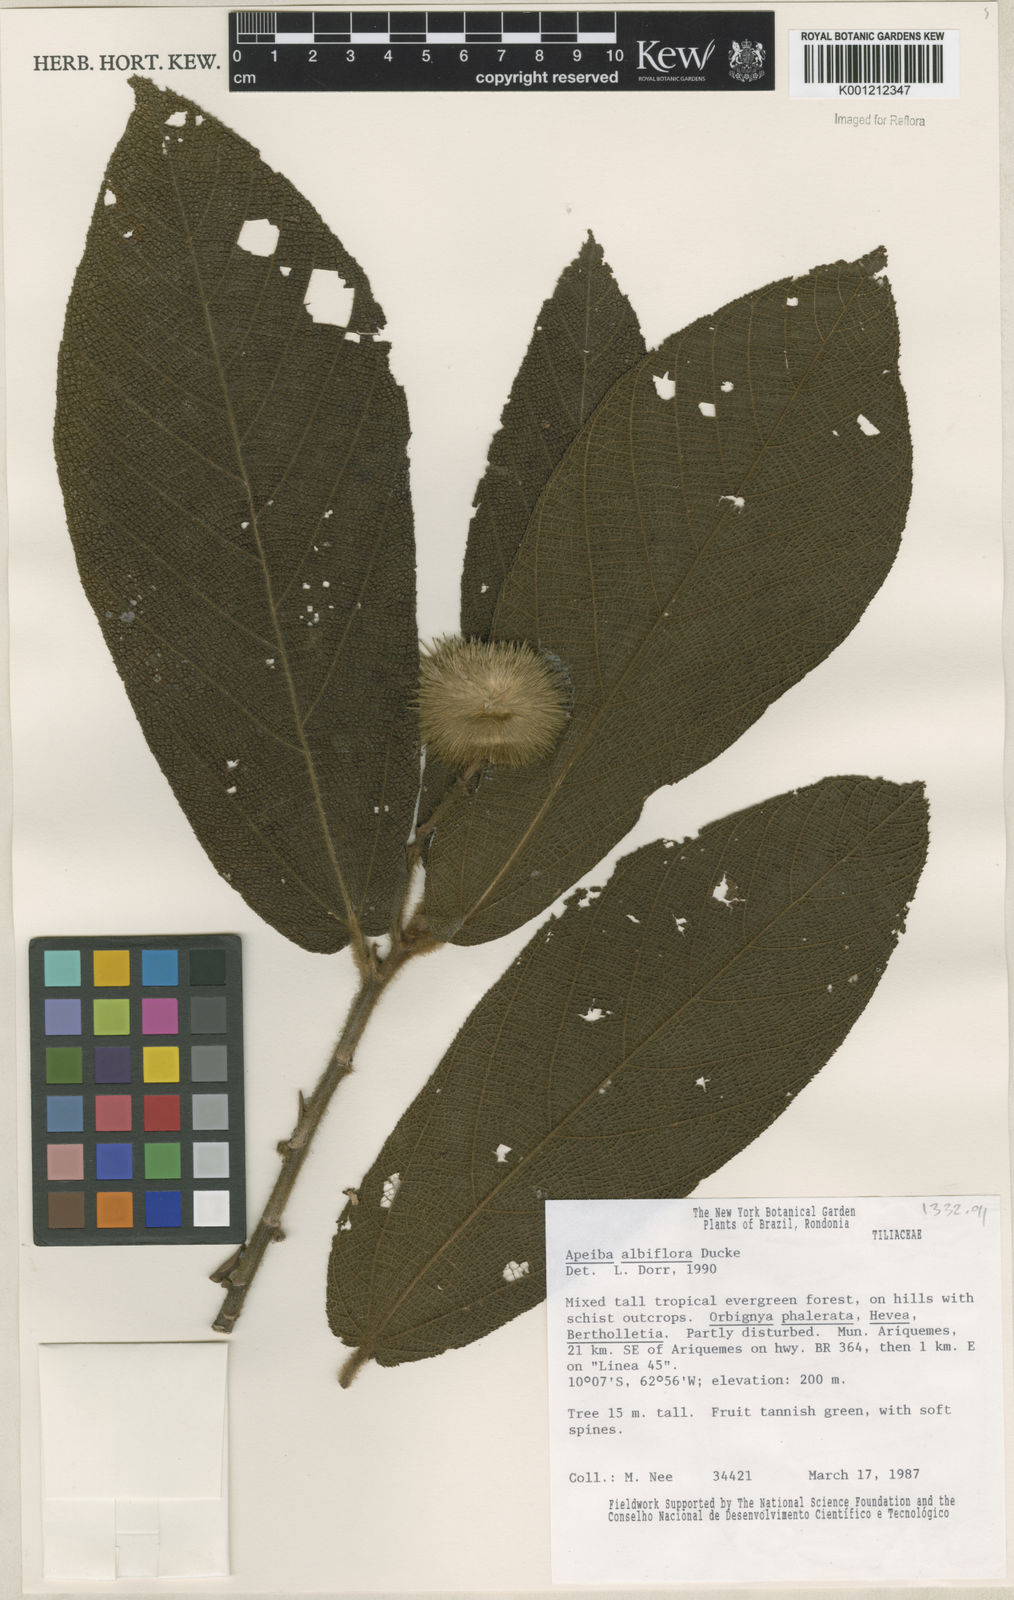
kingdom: Plantae
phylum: Tracheophyta
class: Magnoliopsida
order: Malvales
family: Malvaceae
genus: Apeiba
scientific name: Apeiba albiflora
